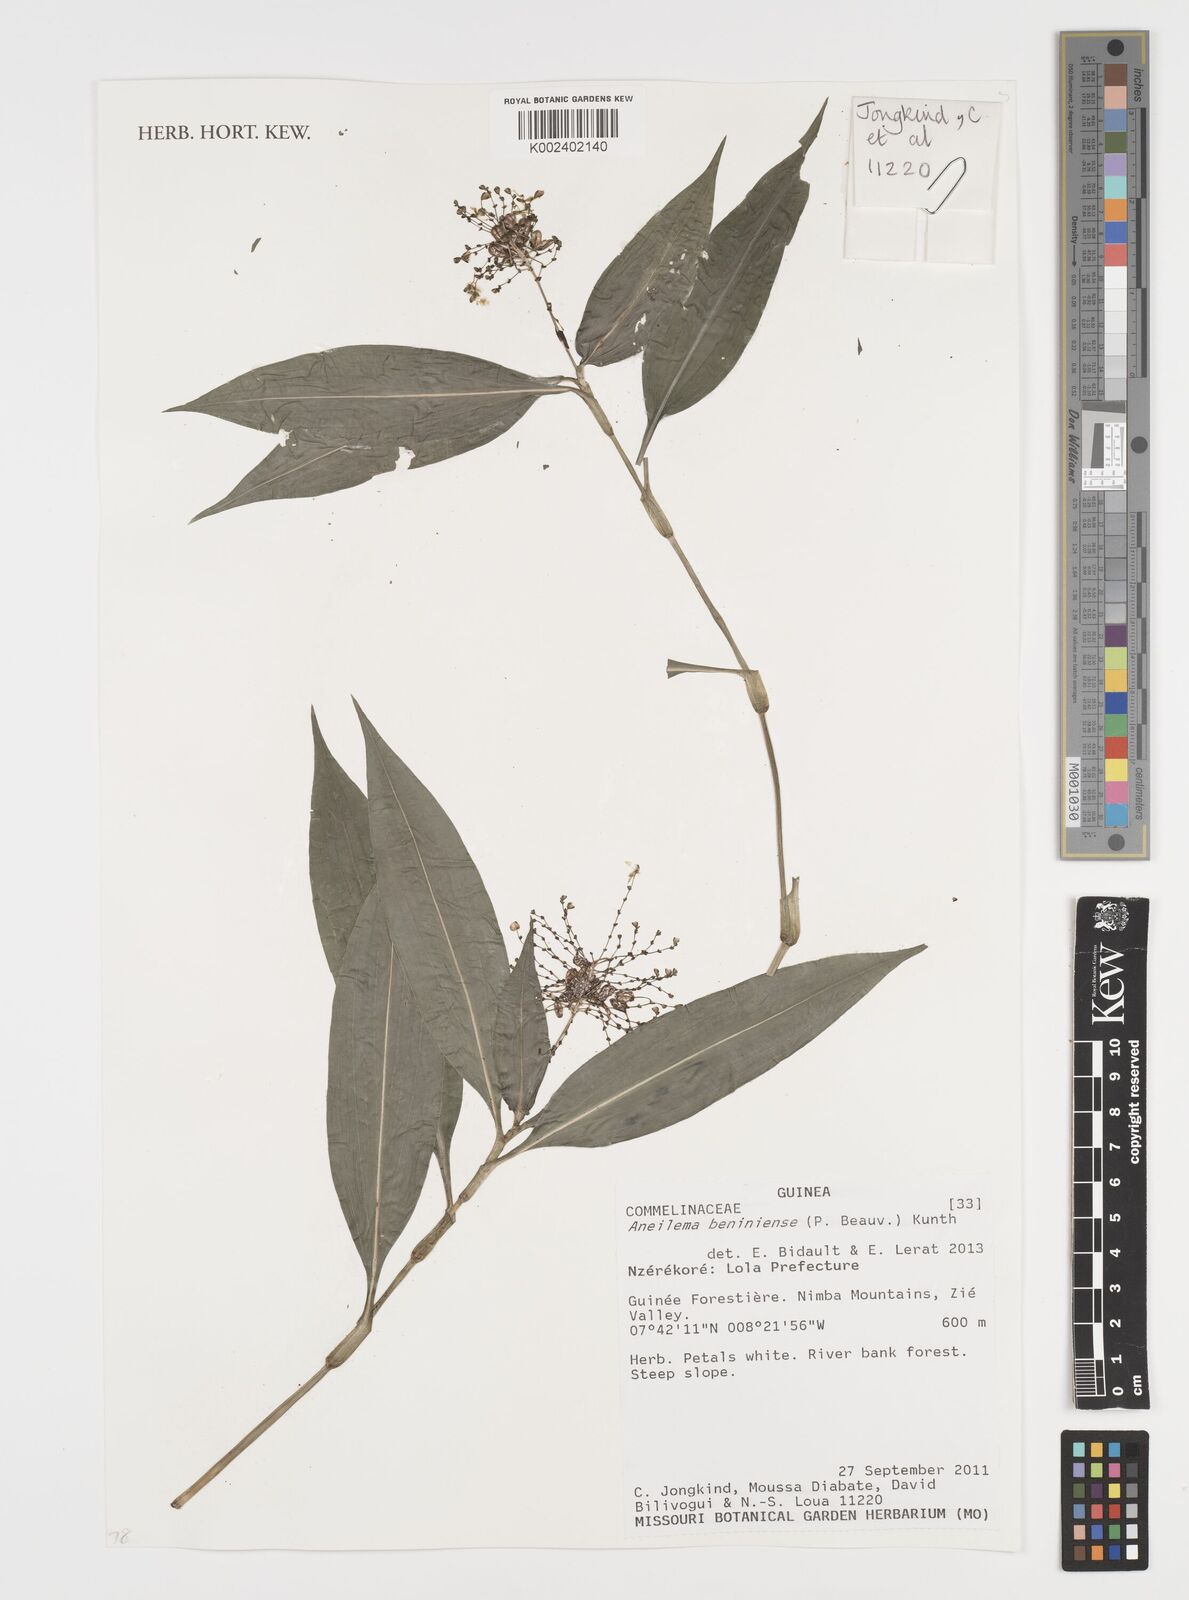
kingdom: Plantae
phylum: Tracheophyta
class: Liliopsida
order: Commelinales
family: Commelinaceae
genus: Aneilema
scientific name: Aneilema beniniense
